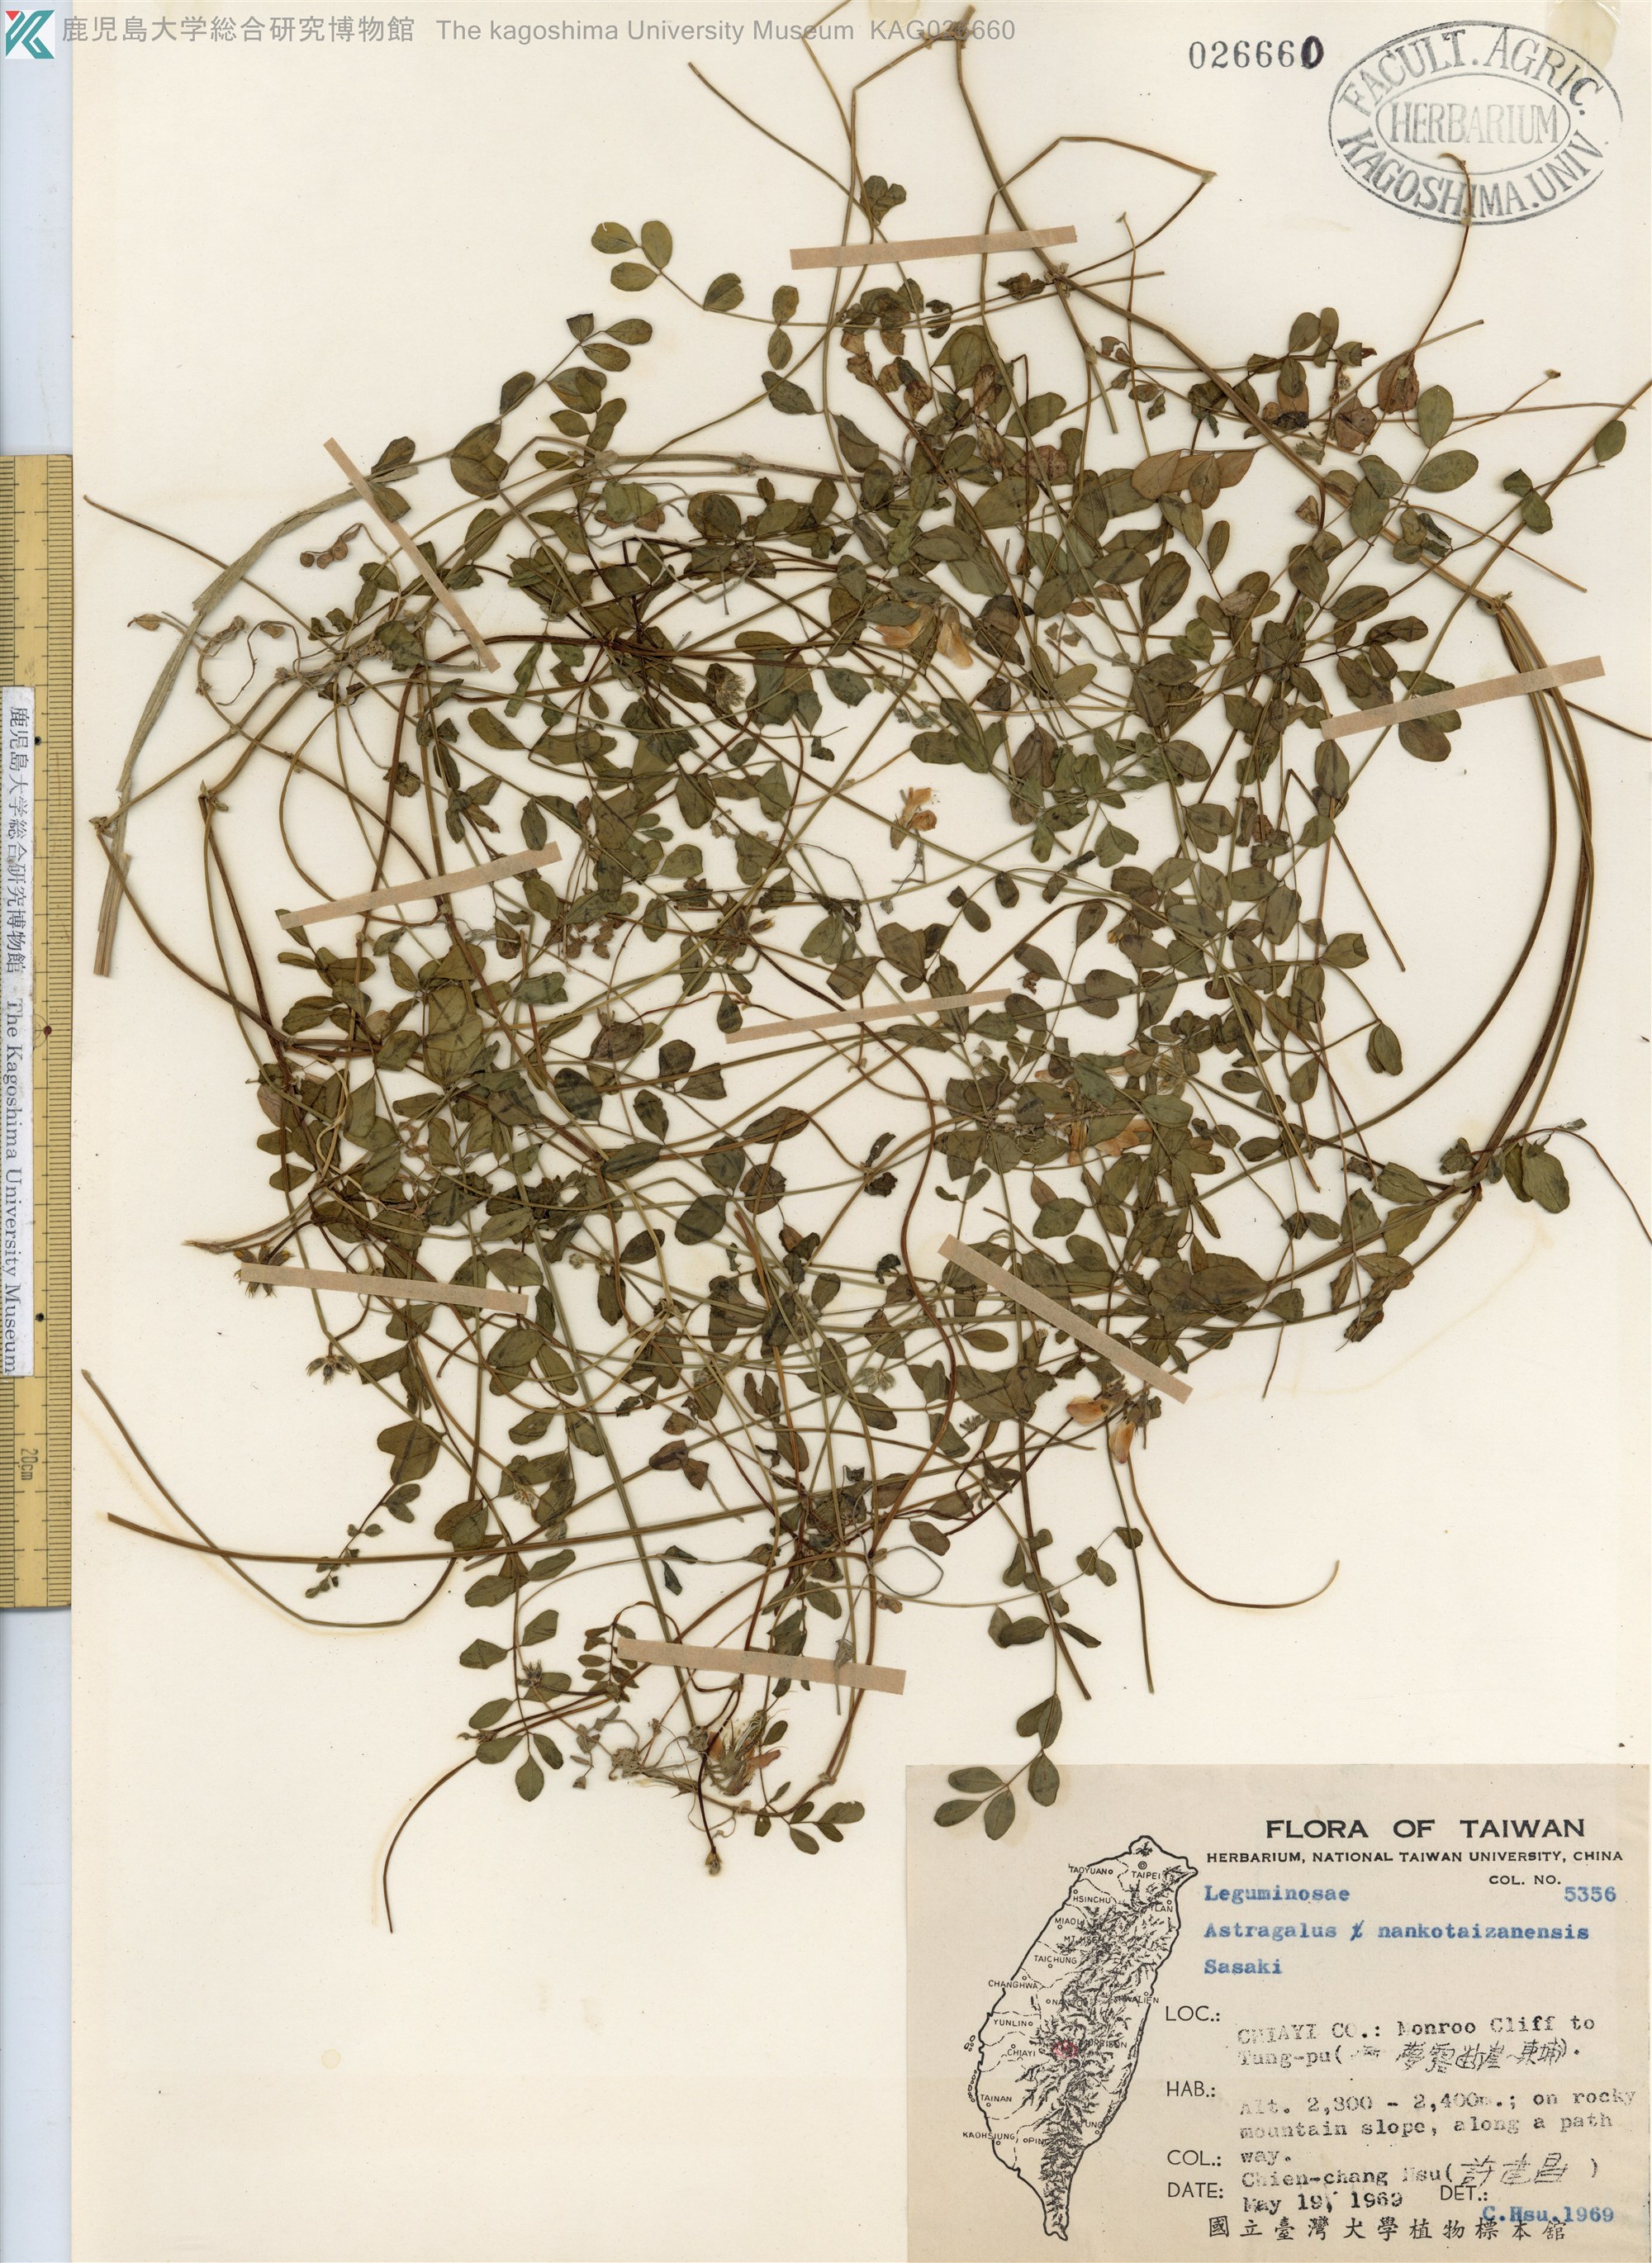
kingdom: Plantae
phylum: Tracheophyta
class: Magnoliopsida
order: Fabales
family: Fabaceae
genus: Astragalus
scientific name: Astragalus nankotaizanensis
